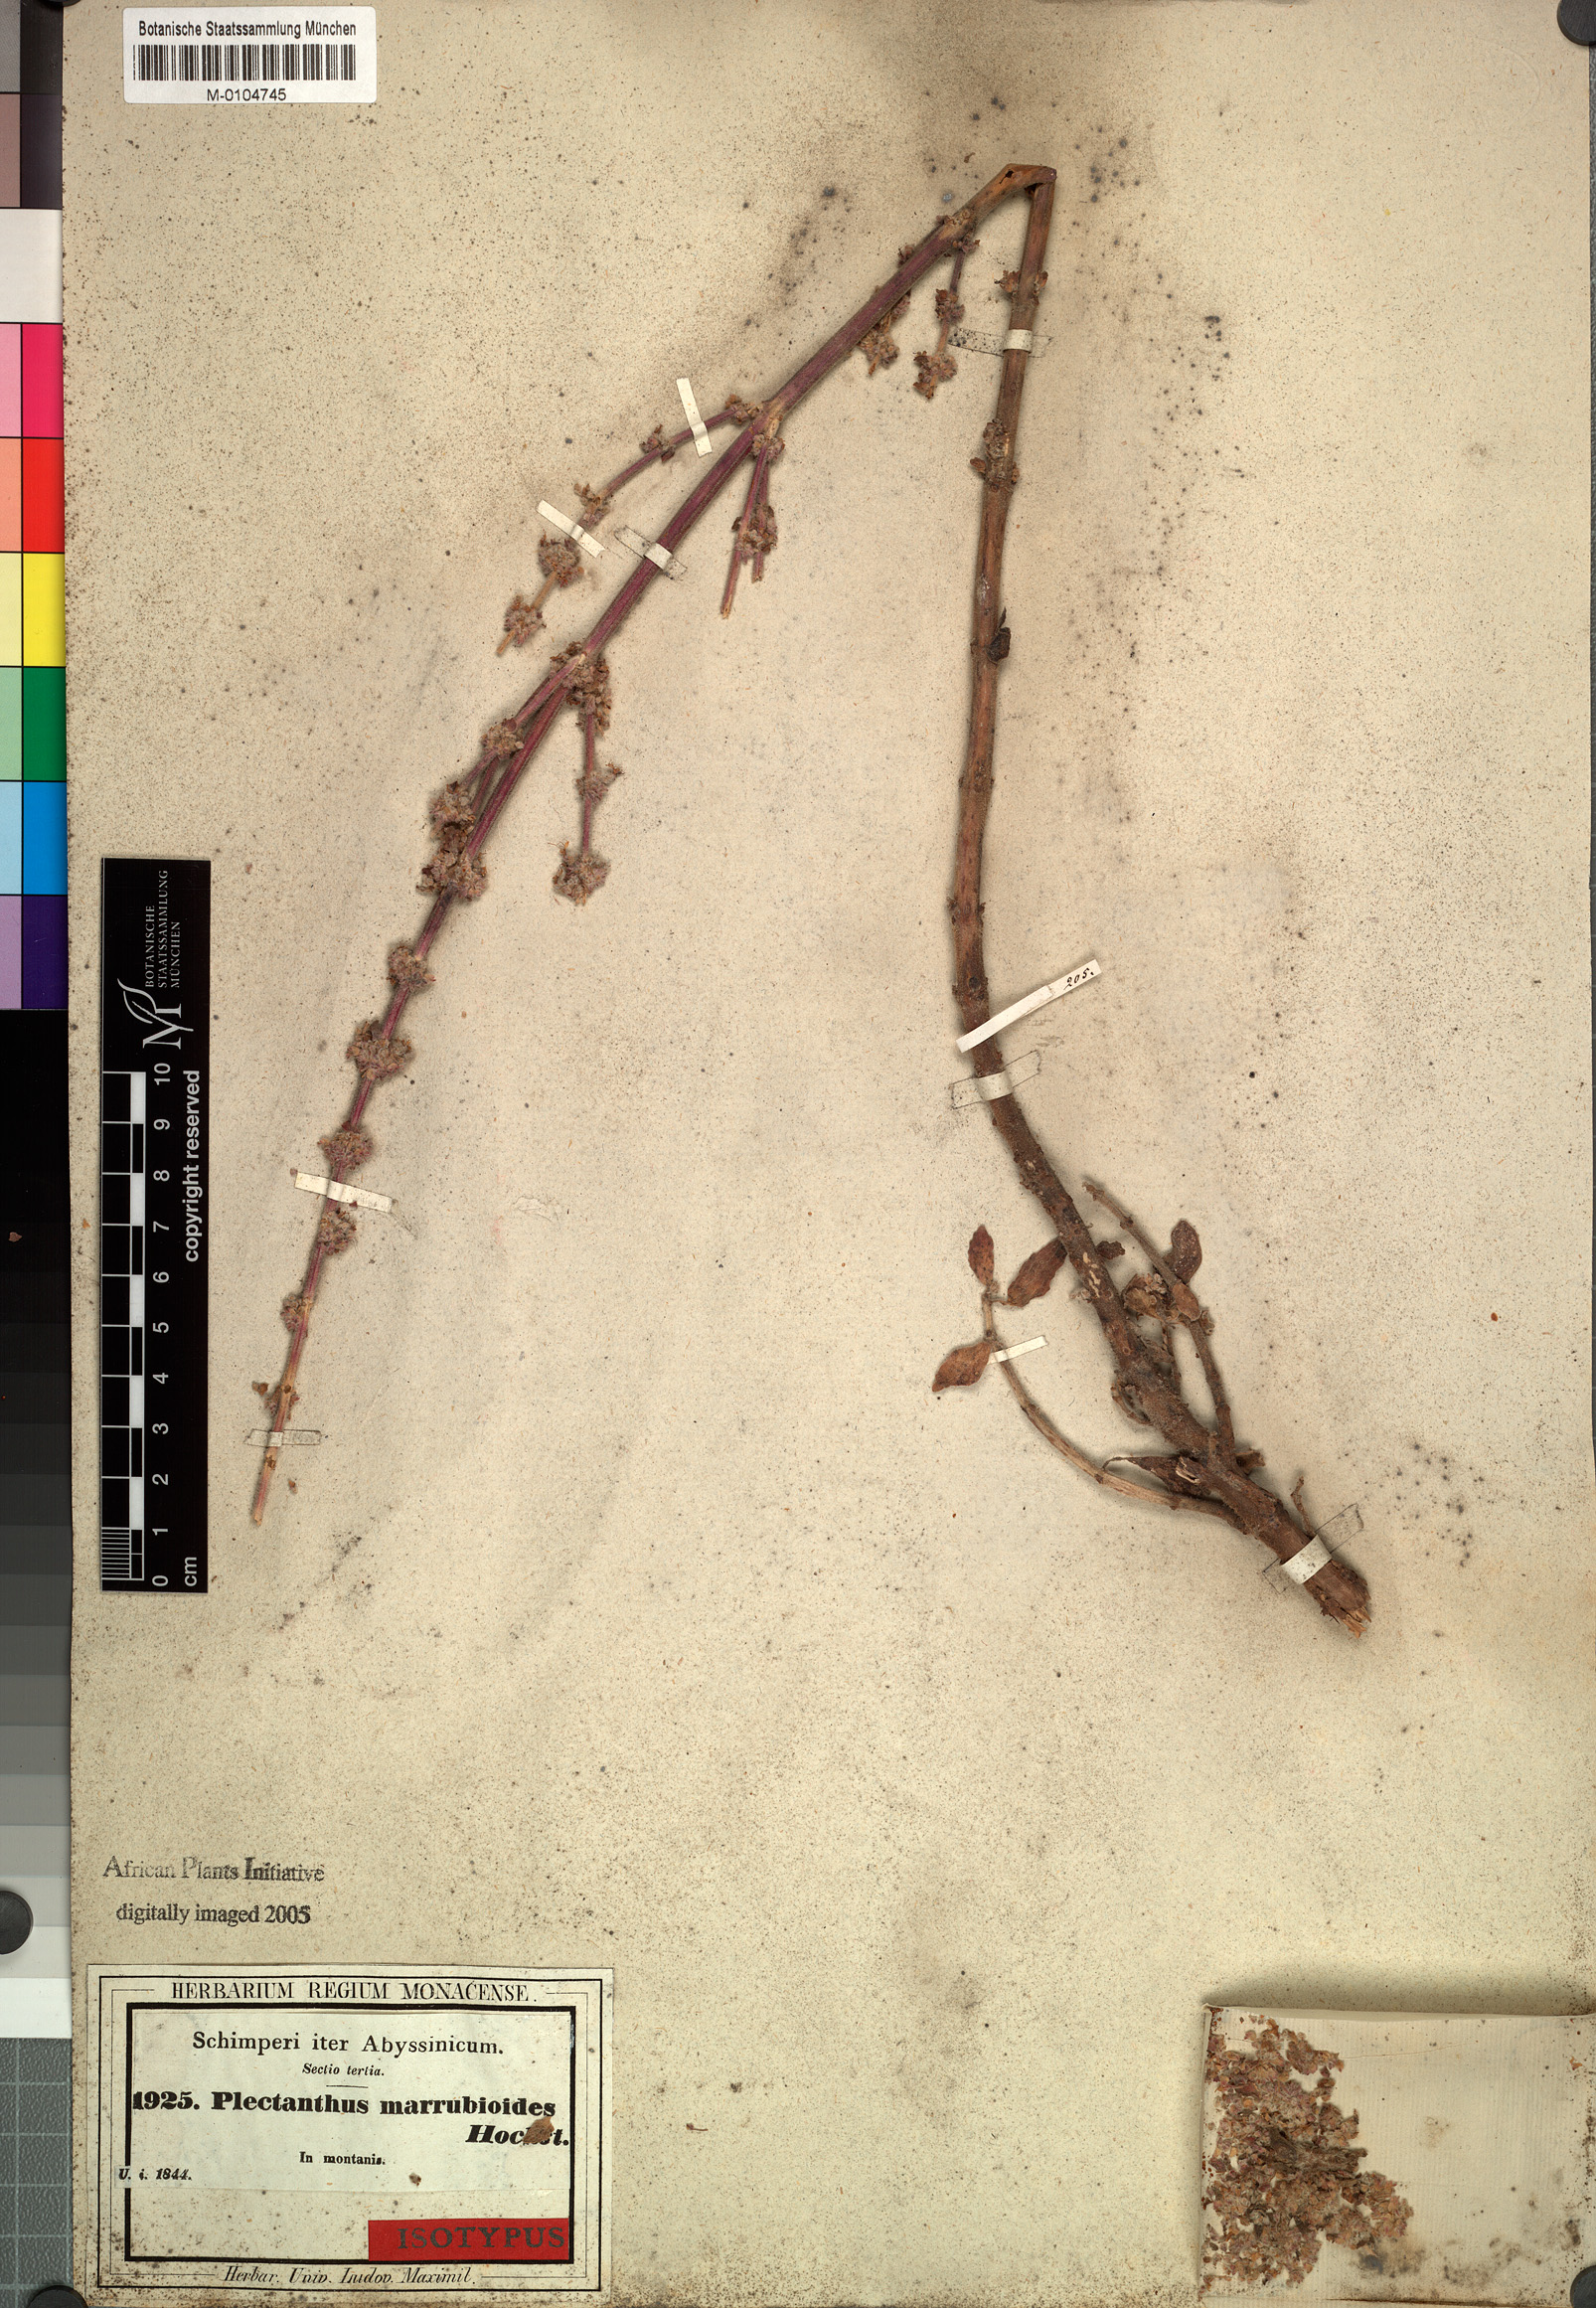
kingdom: Plantae
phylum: Tracheophyta
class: Magnoliopsida
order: Lamiales
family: Lamiaceae
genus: Coleus
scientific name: Coleus cylindraceus
